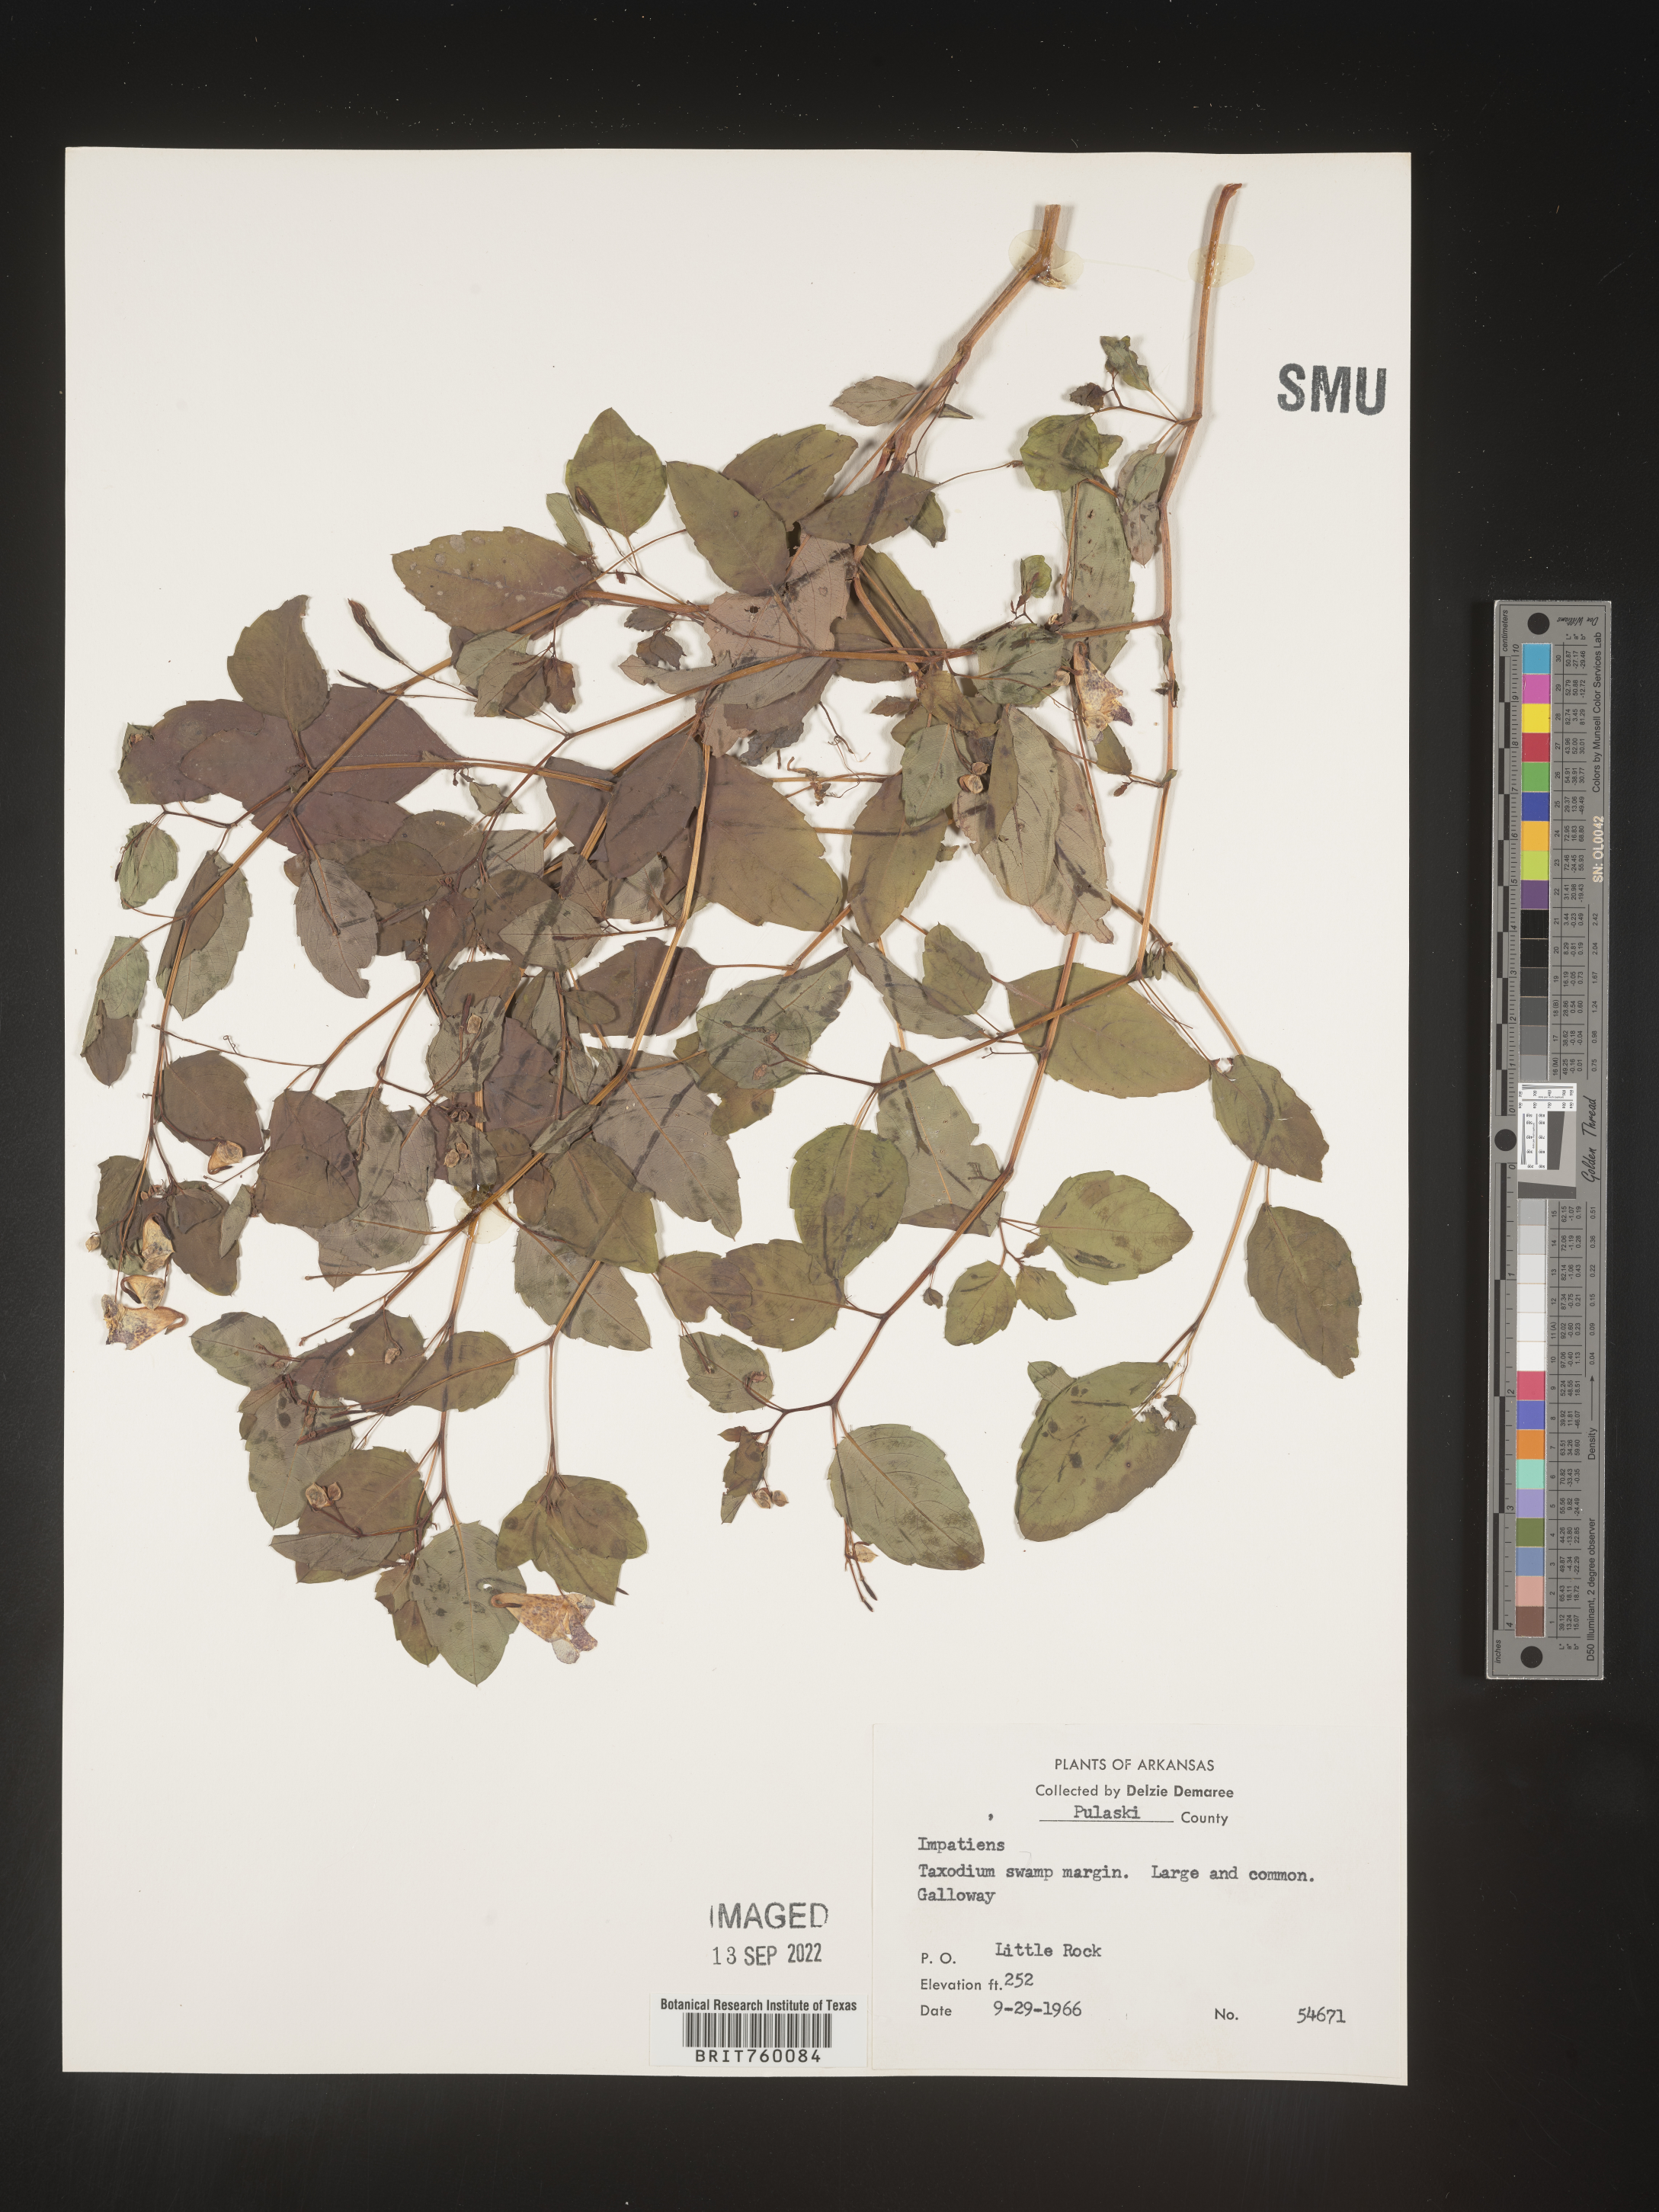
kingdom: Plantae
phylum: Tracheophyta
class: Magnoliopsida
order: Ericales
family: Balsaminaceae
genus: Impatiens
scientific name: Impatiens capensis
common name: Orange balsam
